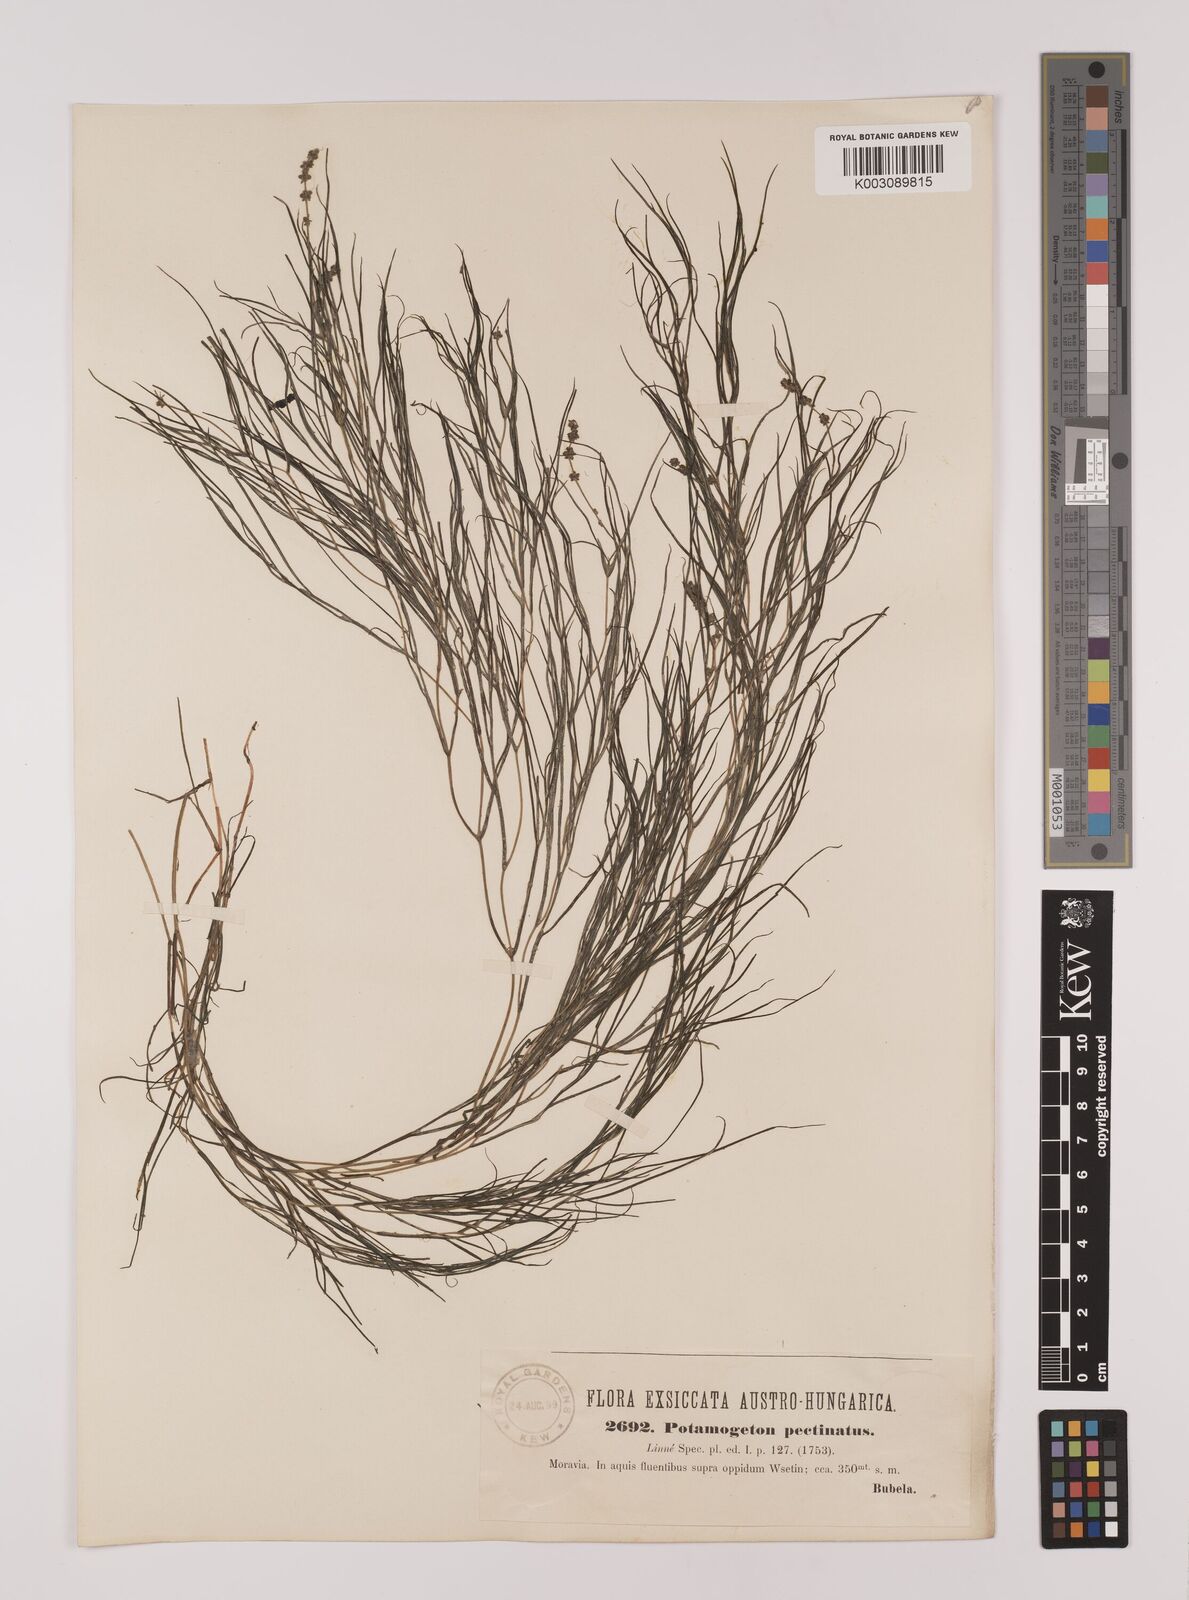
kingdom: Plantae
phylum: Tracheophyta
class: Liliopsida
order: Alismatales
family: Potamogetonaceae
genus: Stuckenia
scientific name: Stuckenia pectinata
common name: Sago pondweed
